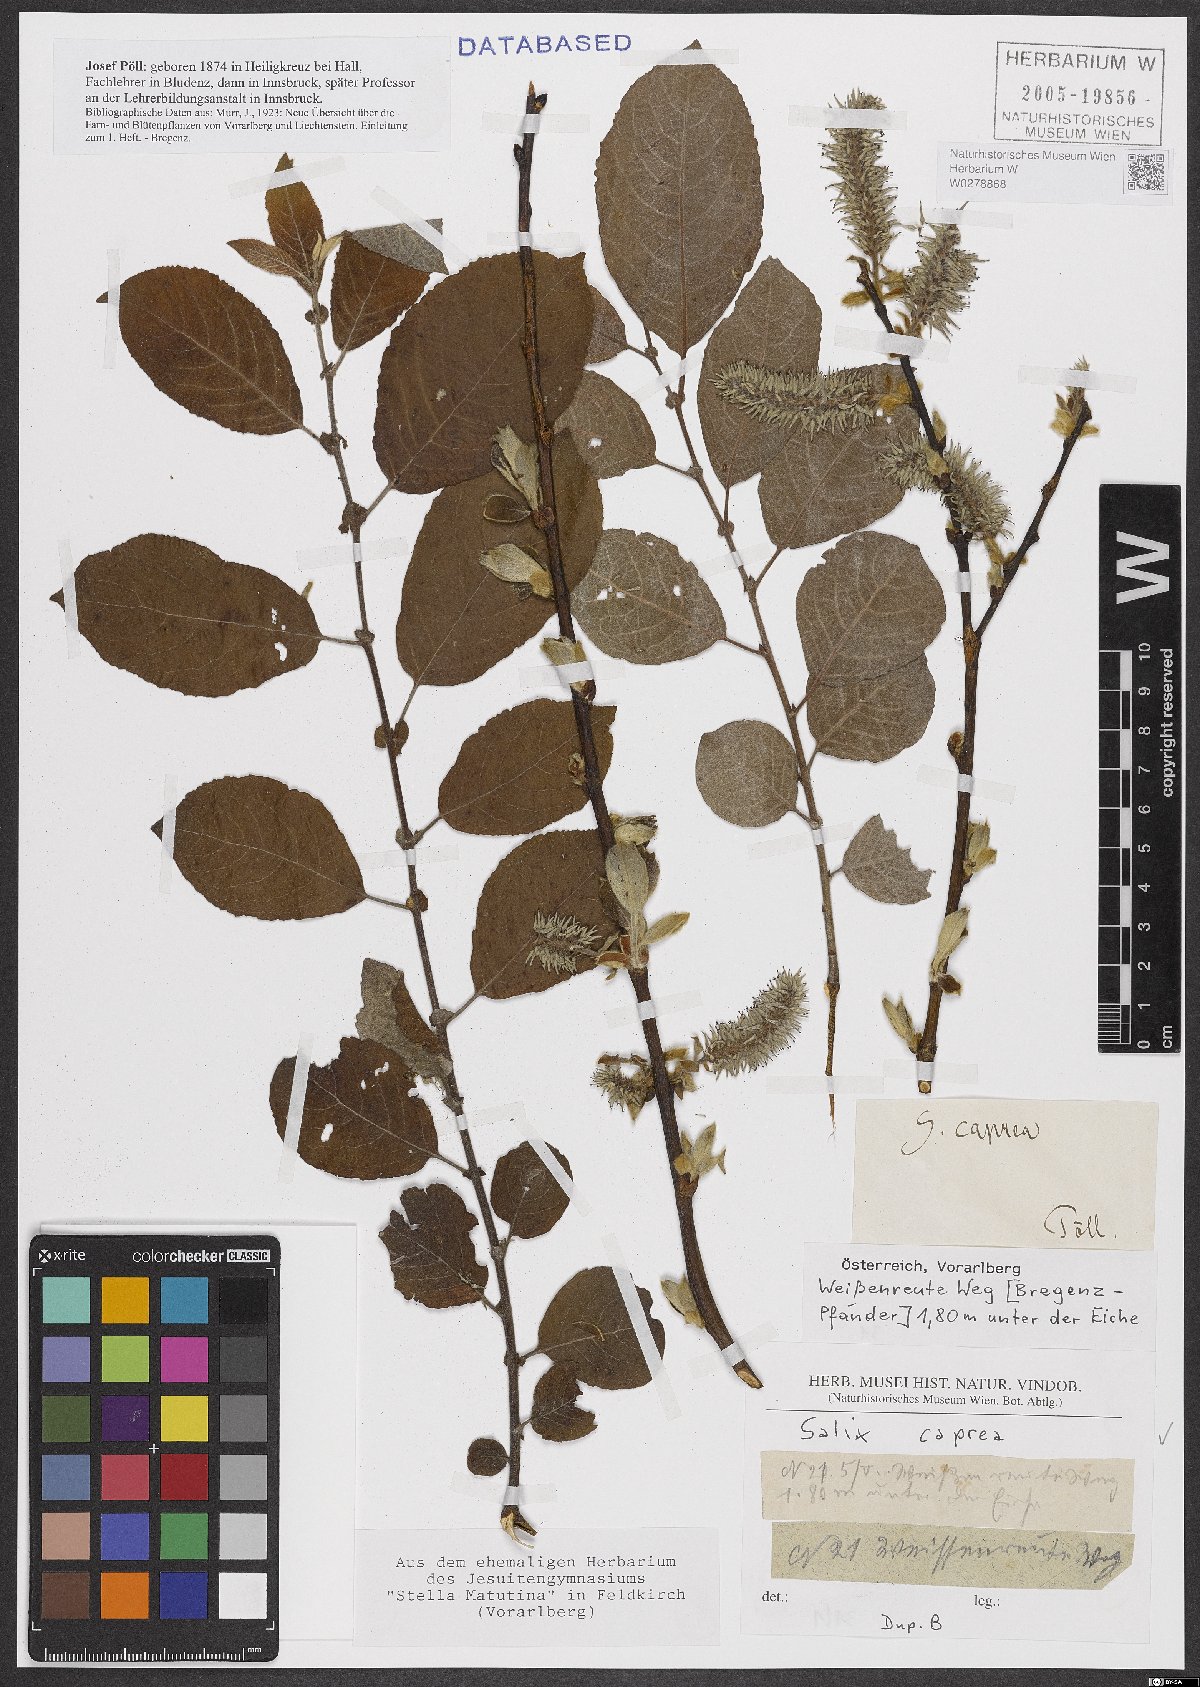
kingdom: Plantae
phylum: Tracheophyta
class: Magnoliopsida
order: Malpighiales
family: Salicaceae
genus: Salix
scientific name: Salix caprea
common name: Goat willow
